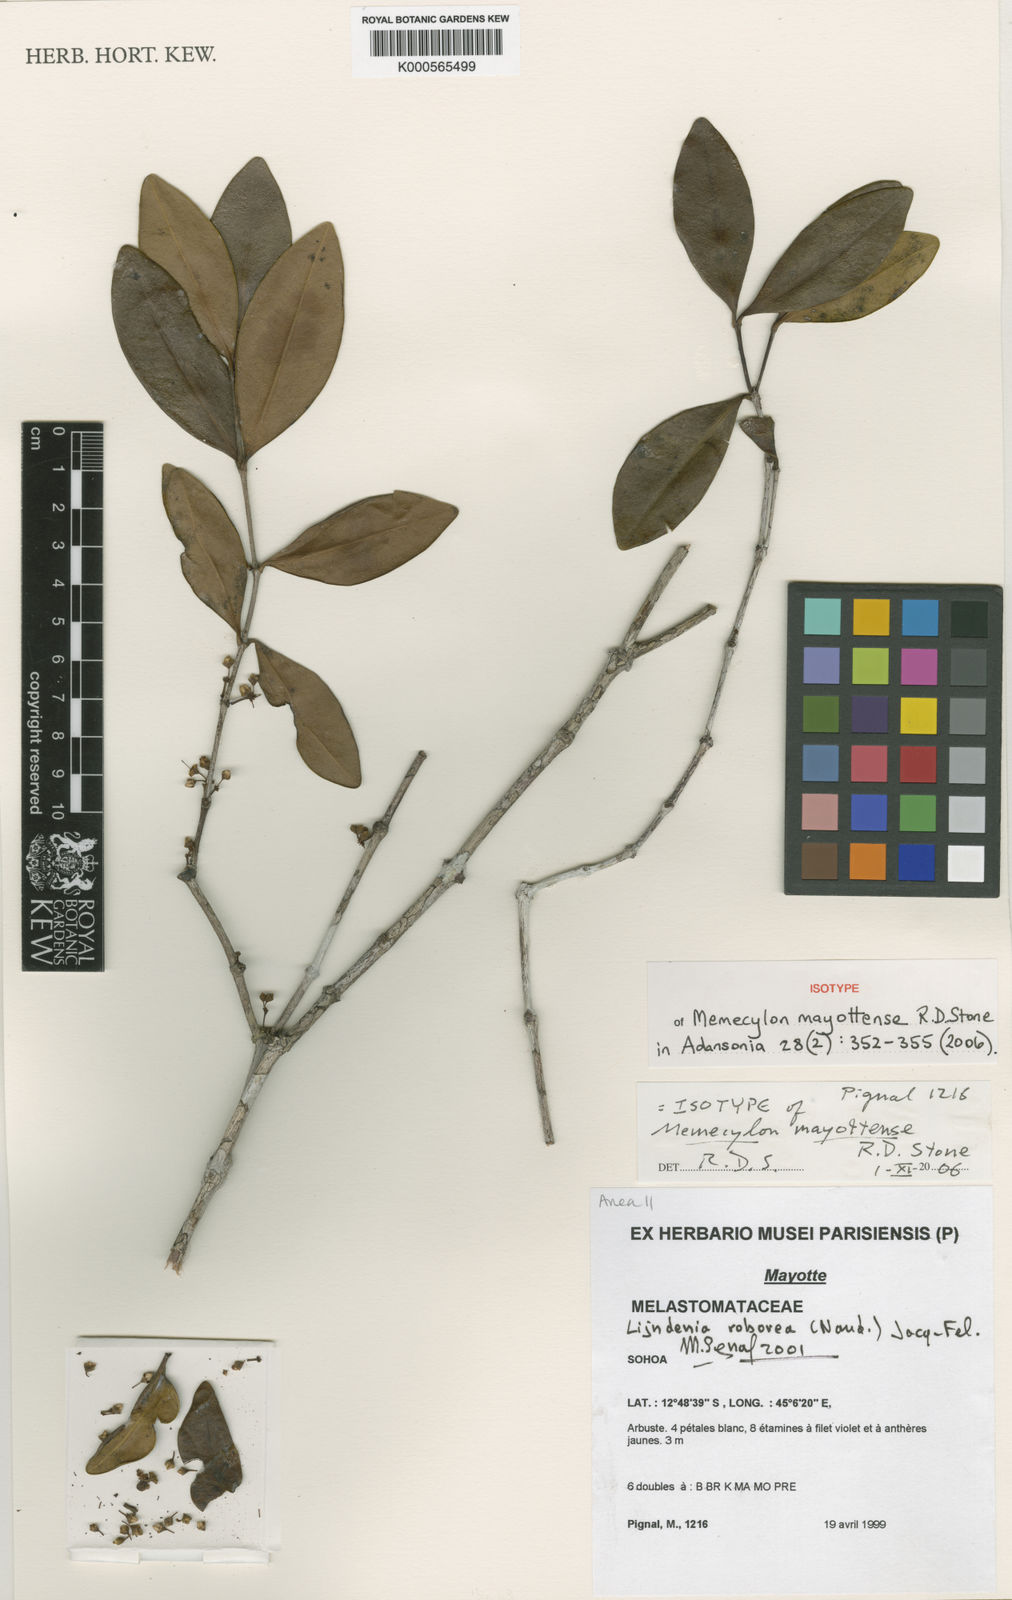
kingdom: Plantae
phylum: Tracheophyta
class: Magnoliopsida
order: Myrtales
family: Melastomataceae
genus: Memecylon
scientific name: Memecylon mayottense
